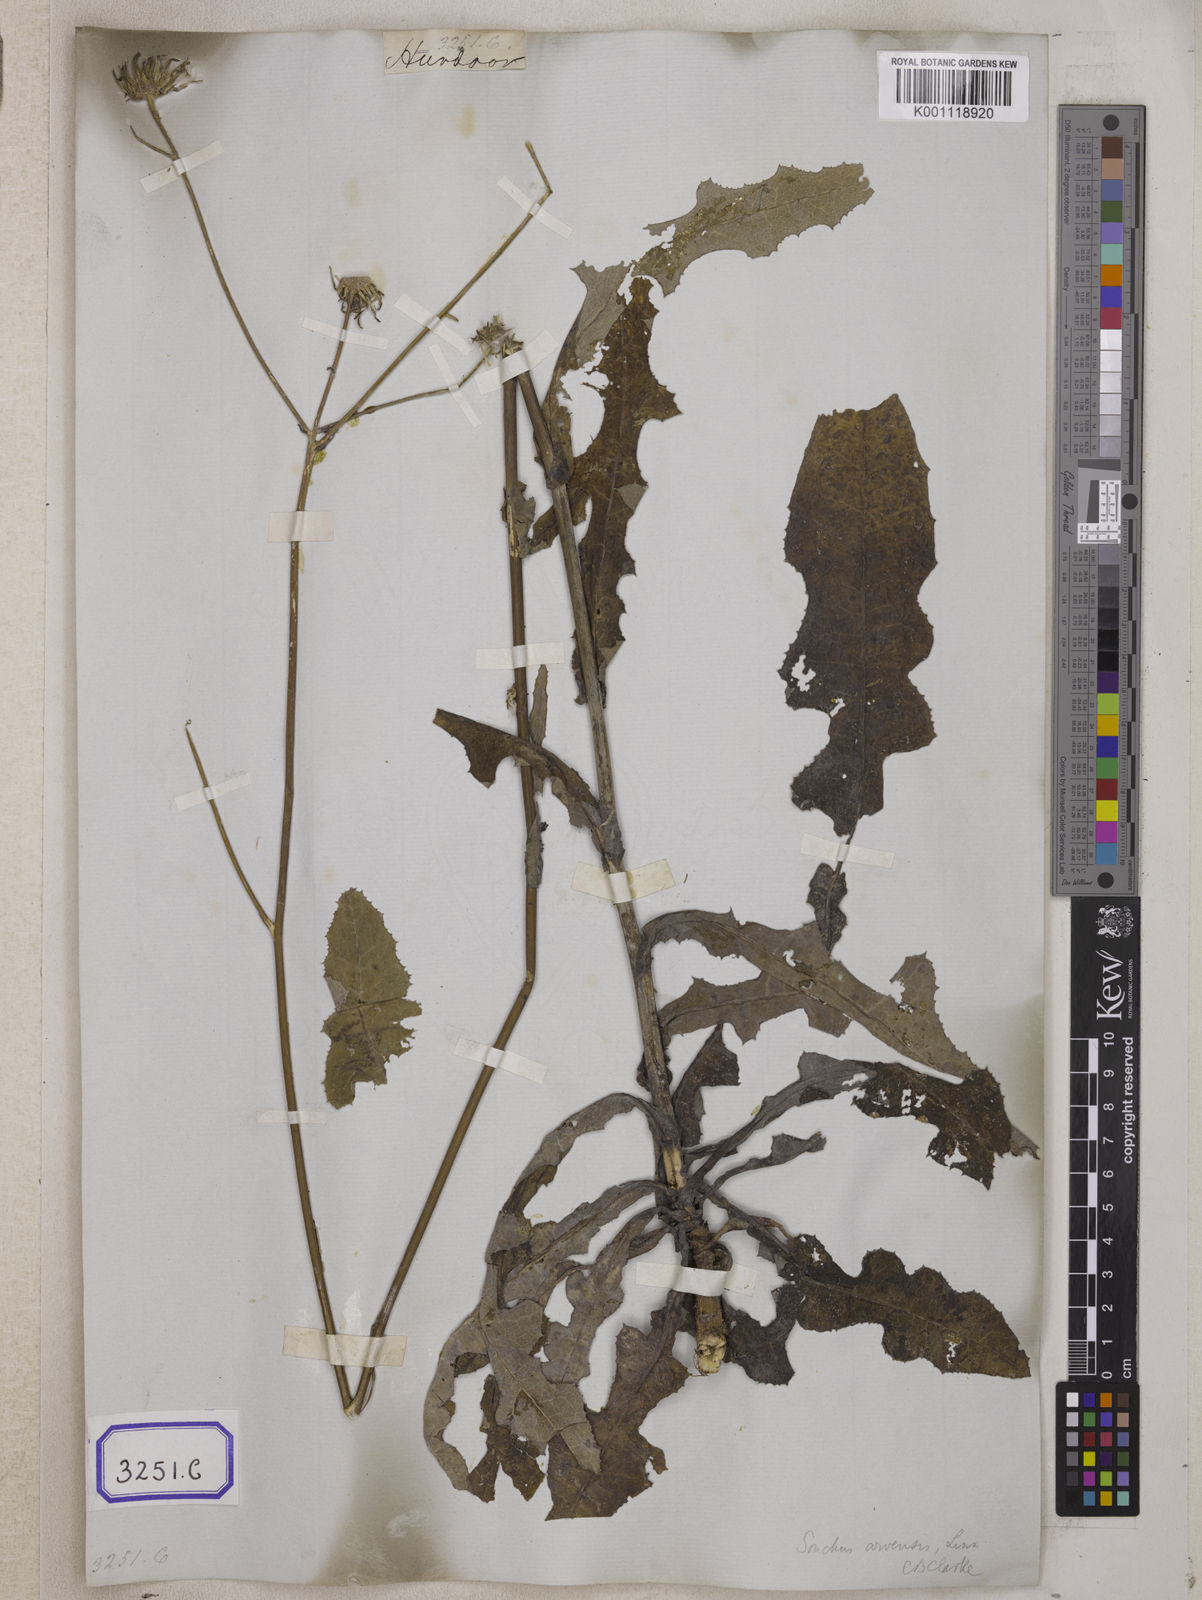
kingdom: Plantae
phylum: Tracheophyta
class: Magnoliopsida
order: Asterales
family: Asteraceae
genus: Sonchus
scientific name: Sonchus arvensis
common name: Perennial sow-thistle
